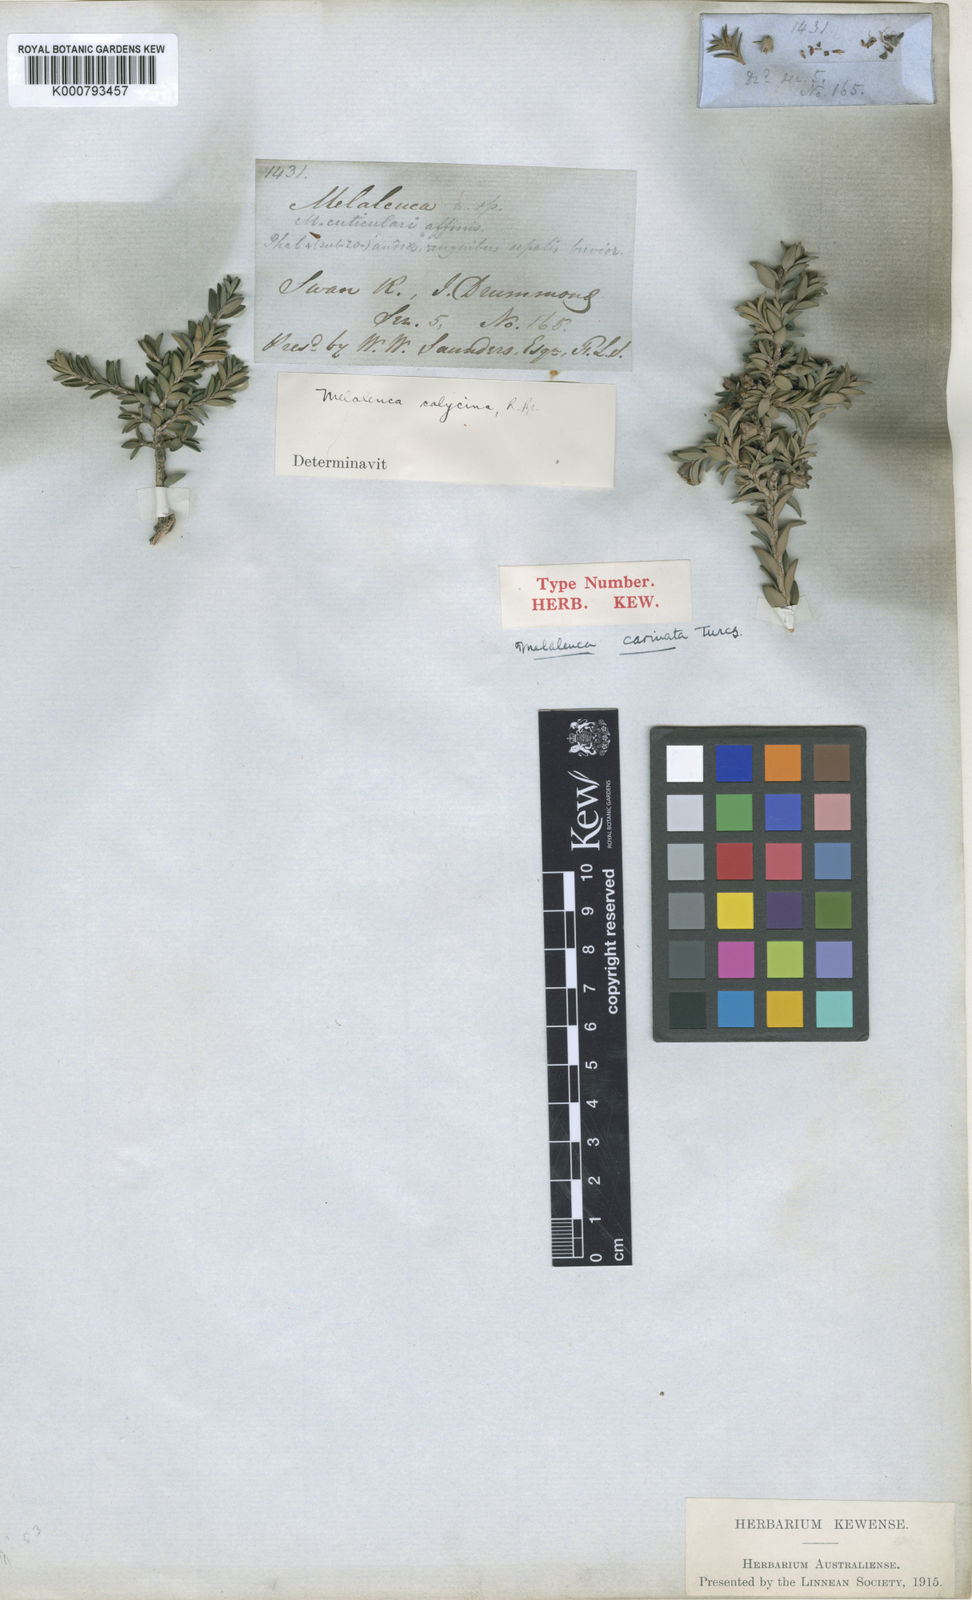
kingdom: Plantae
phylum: Tracheophyta
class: Magnoliopsida
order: Myrtales
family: Myrtaceae
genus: Melaleuca
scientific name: Melaleuca calycina
